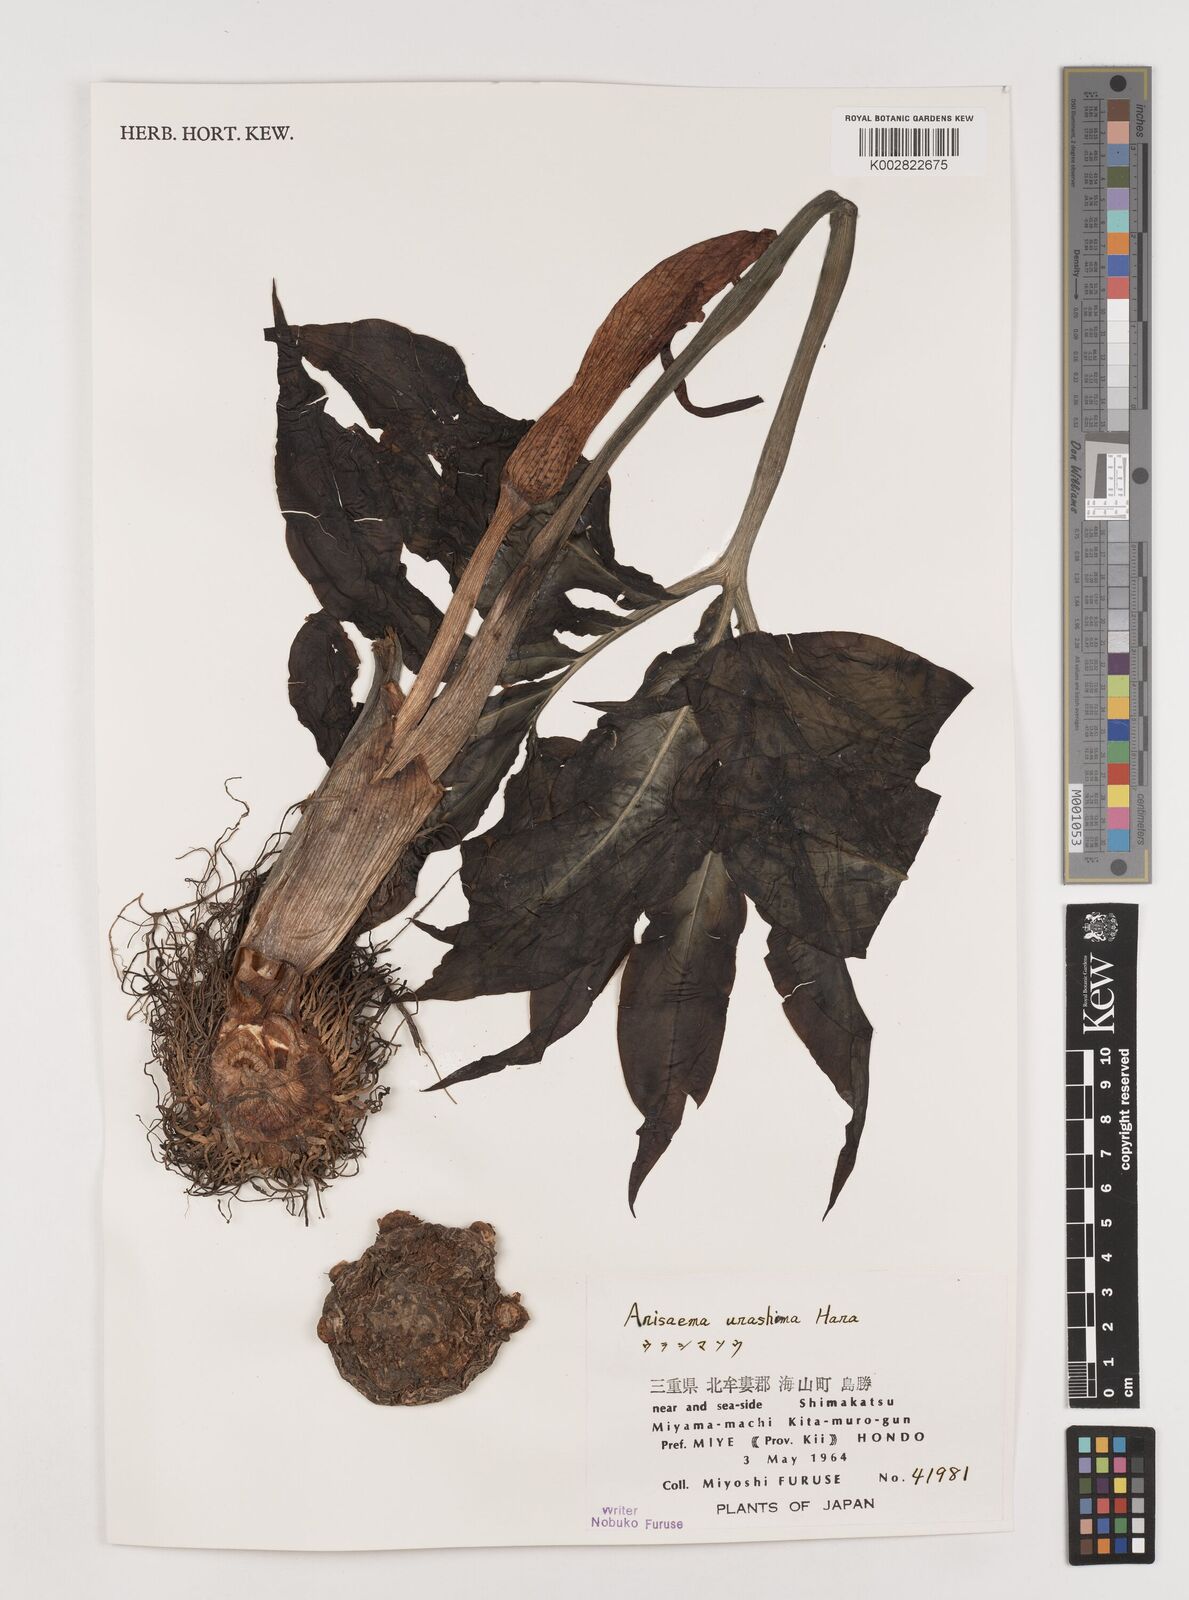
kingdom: Plantae
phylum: Tracheophyta
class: Liliopsida
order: Alismatales
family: Araceae
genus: Arisaema
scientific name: Arisaema
